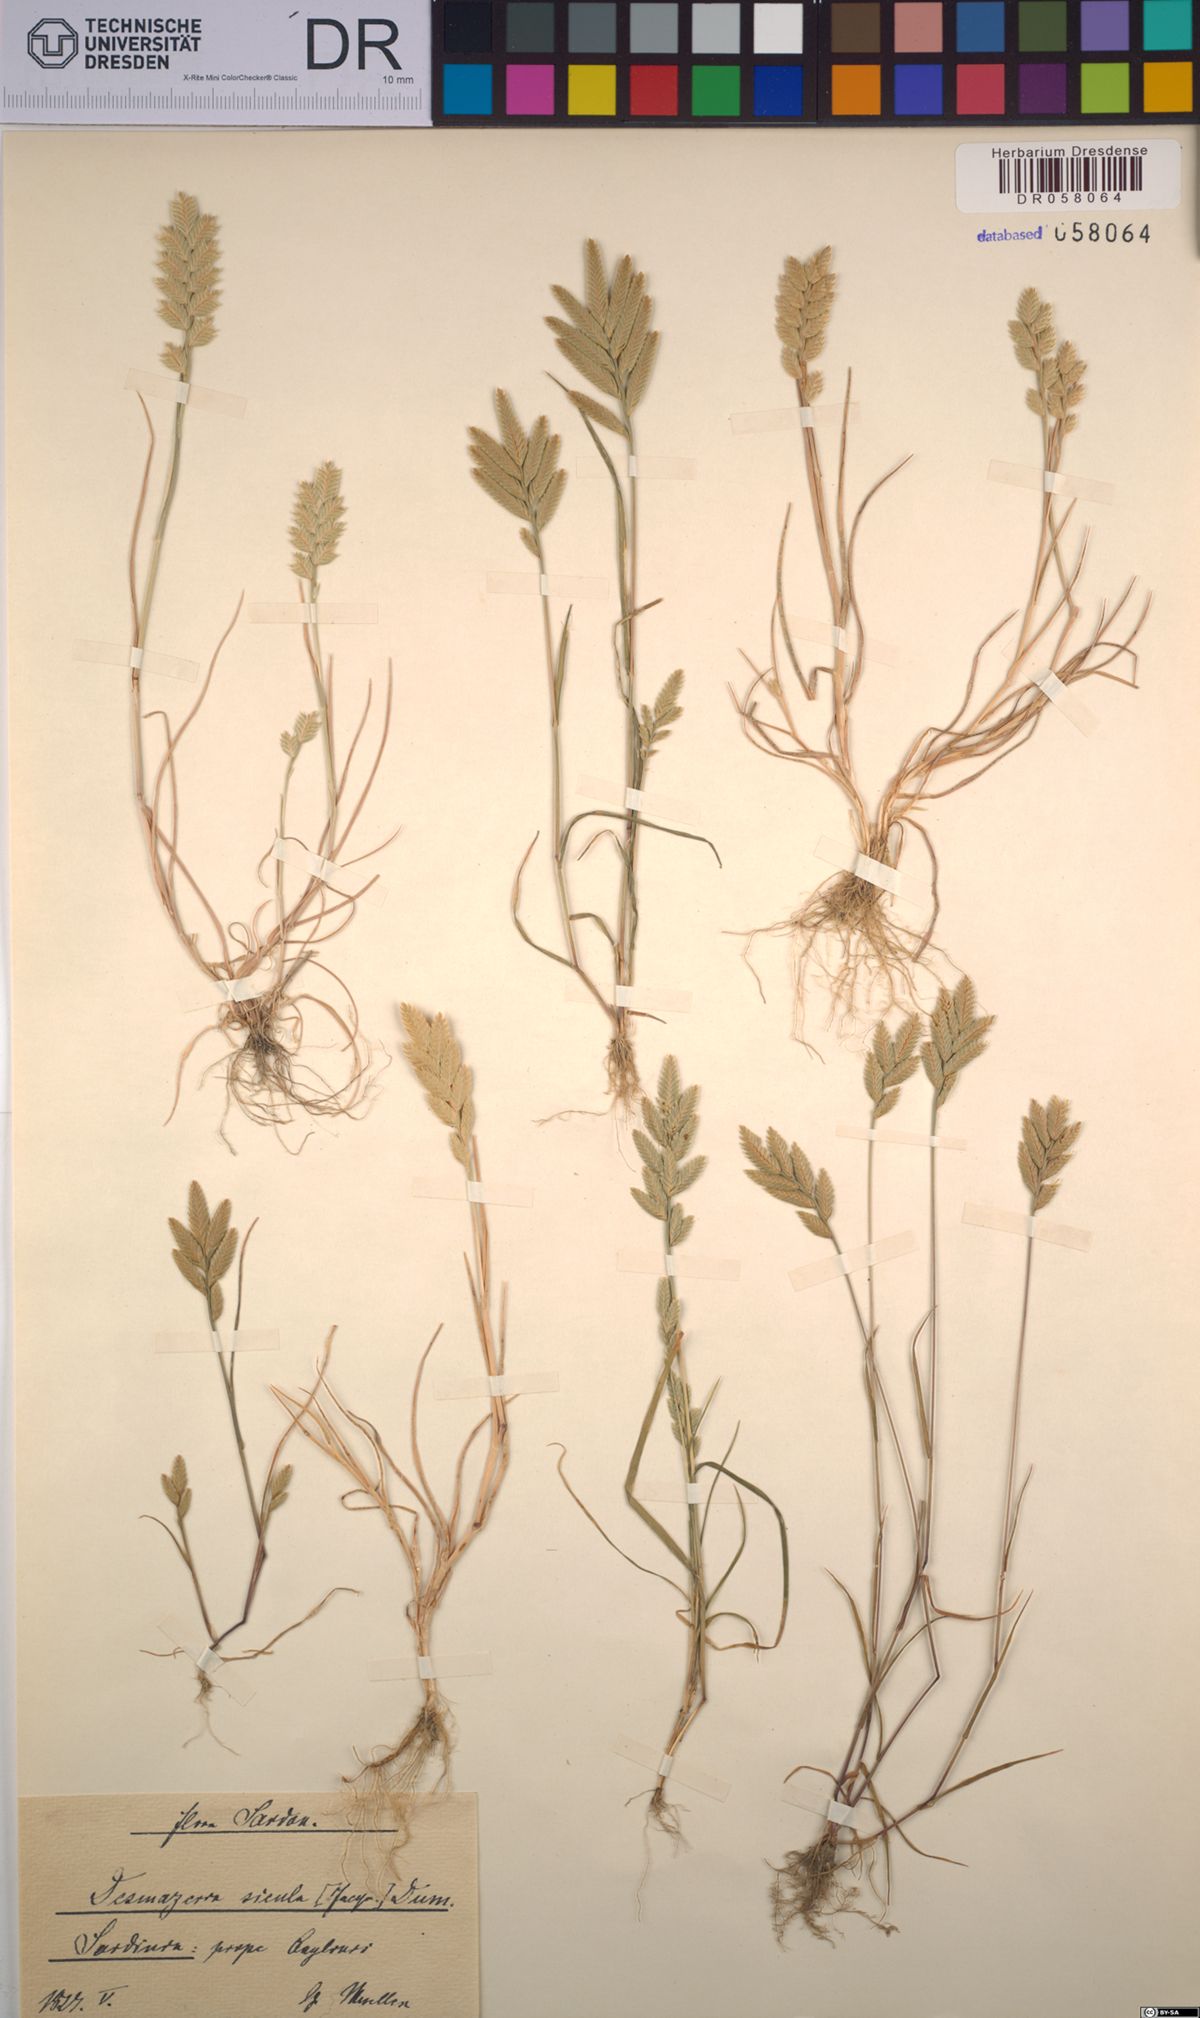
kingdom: Plantae
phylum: Tracheophyta
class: Liliopsida
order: Poales
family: Poaceae
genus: Desmazeria
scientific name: Desmazeria sicula
